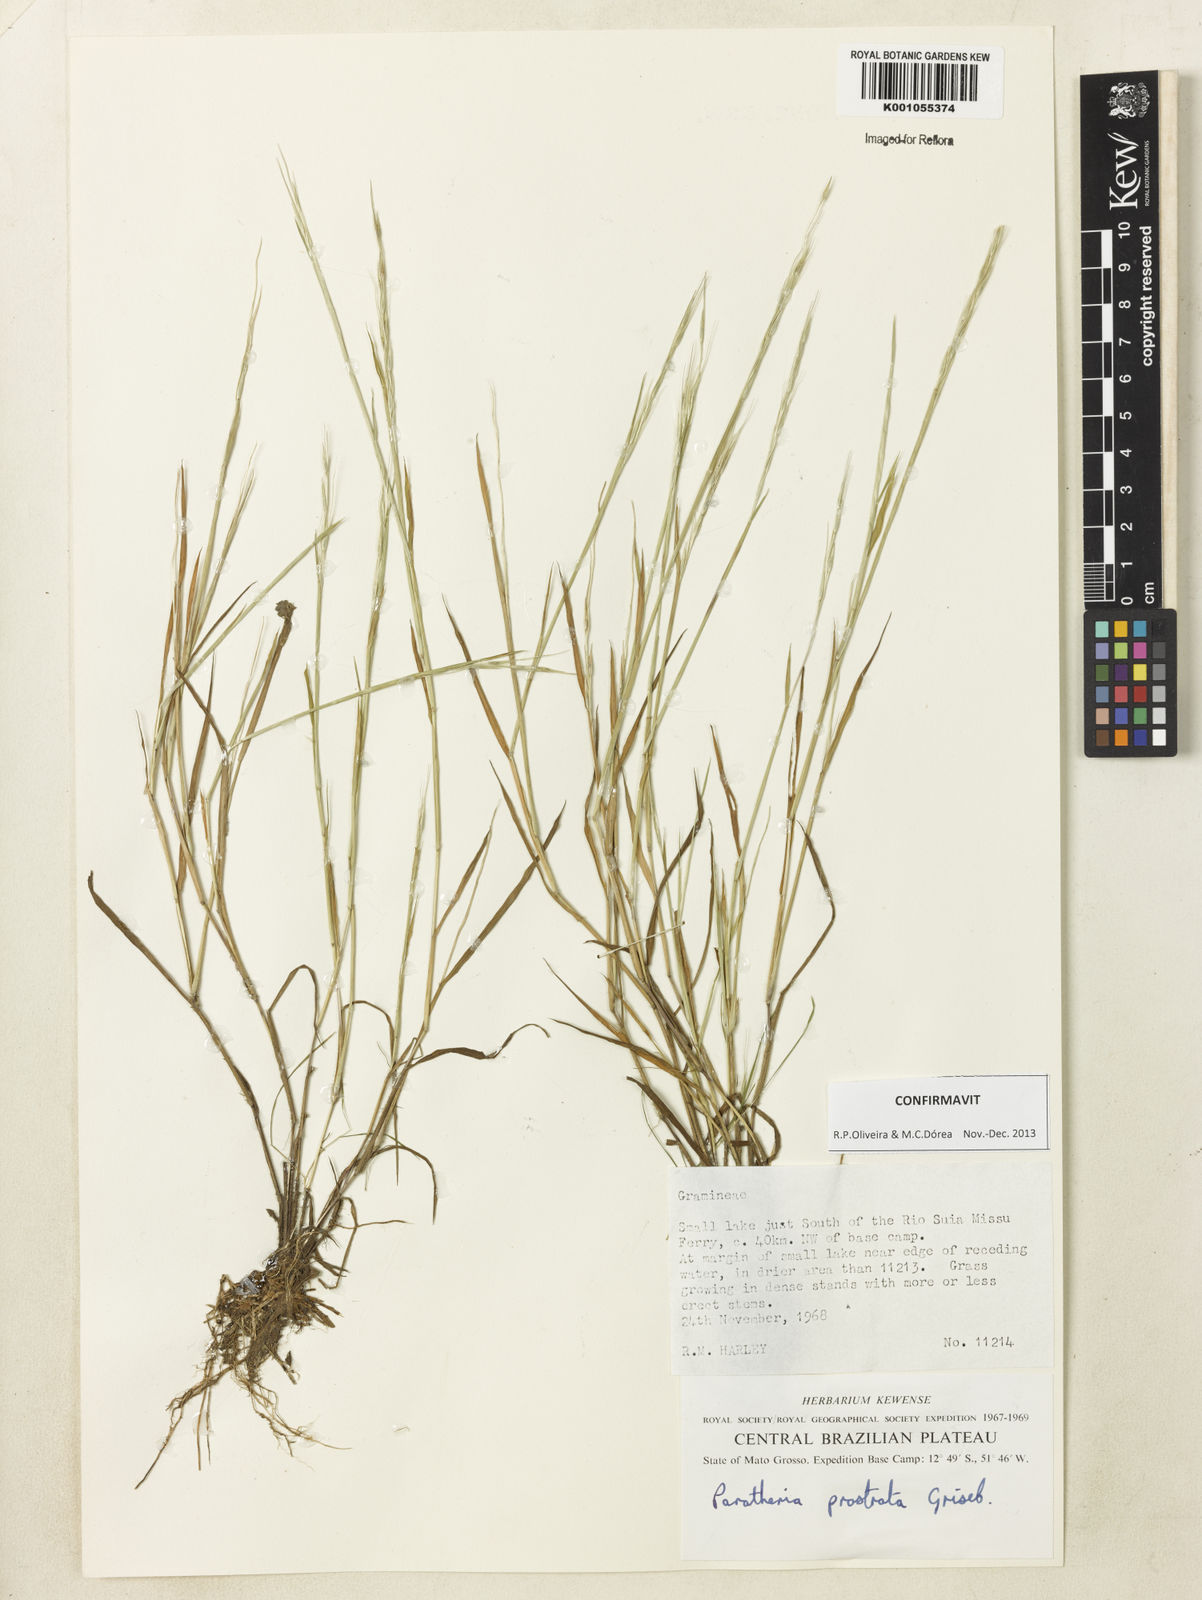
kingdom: Plantae
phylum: Tracheophyta
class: Liliopsida
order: Poales
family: Poaceae
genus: Paratheria
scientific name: Paratheria prostrata
